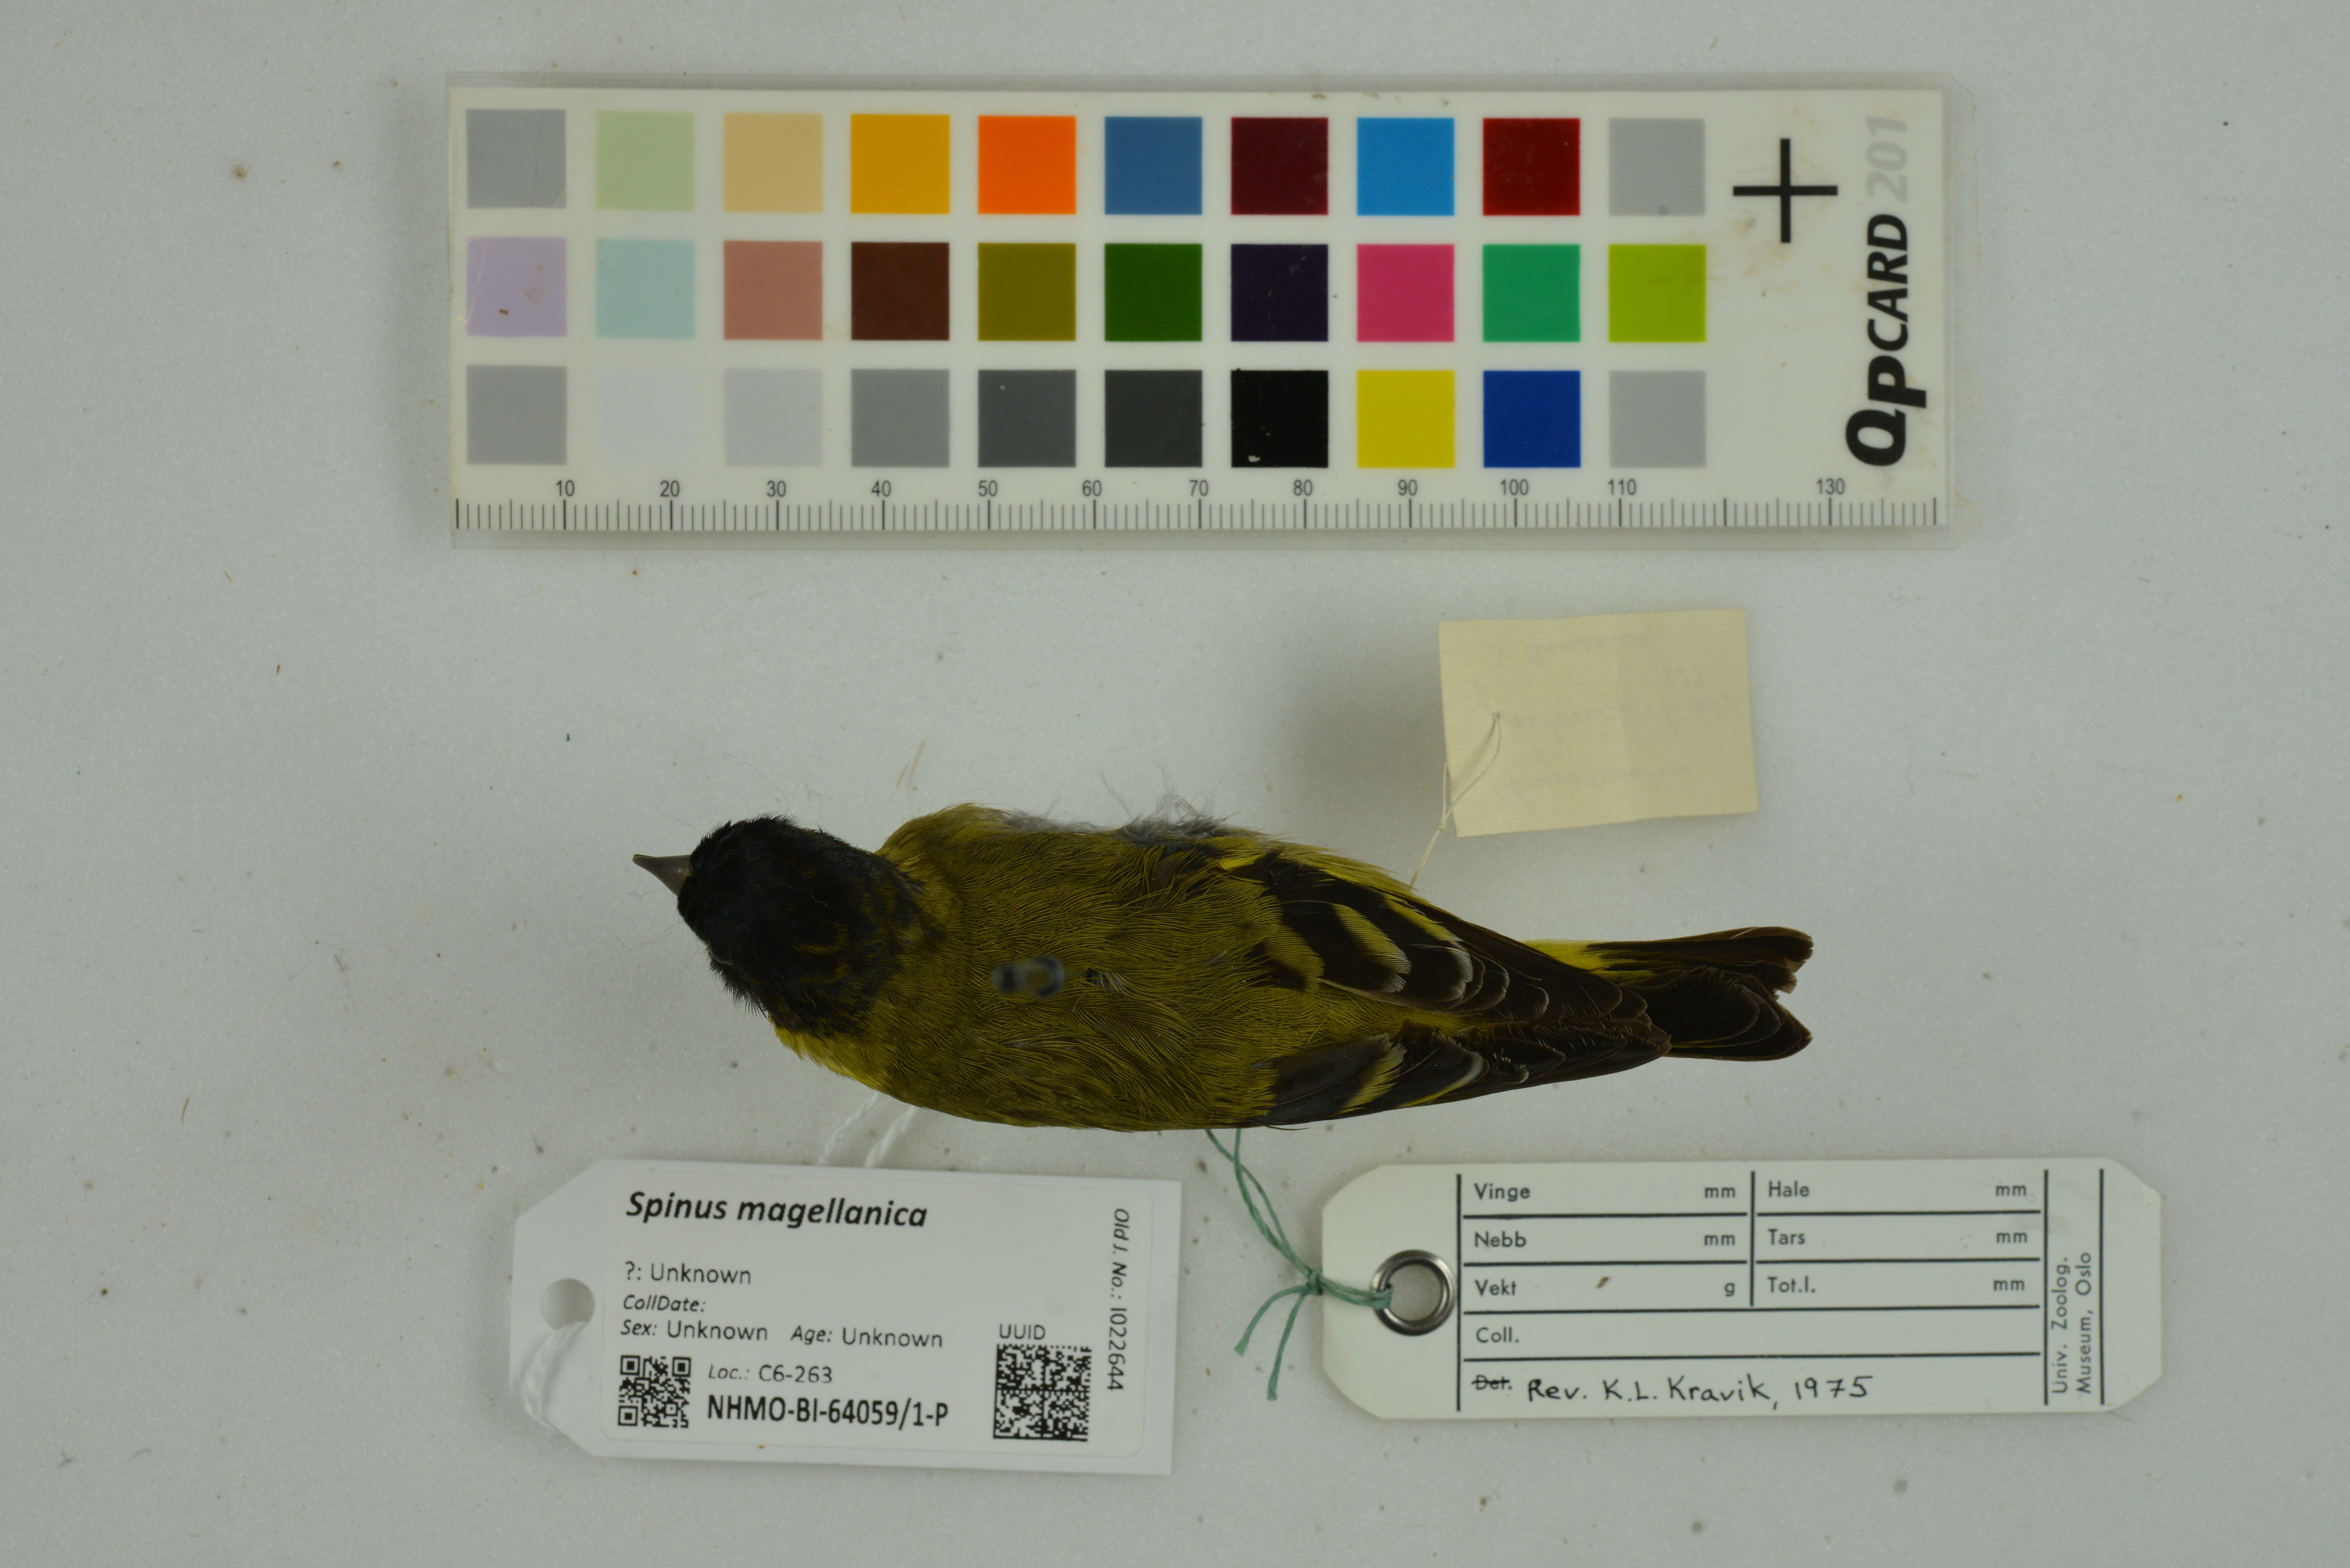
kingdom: Animalia
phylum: Chordata
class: Aves
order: Passeriformes
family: Fringillidae
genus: Spinus
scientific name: Spinus magellanicus
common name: Hooded siskin
